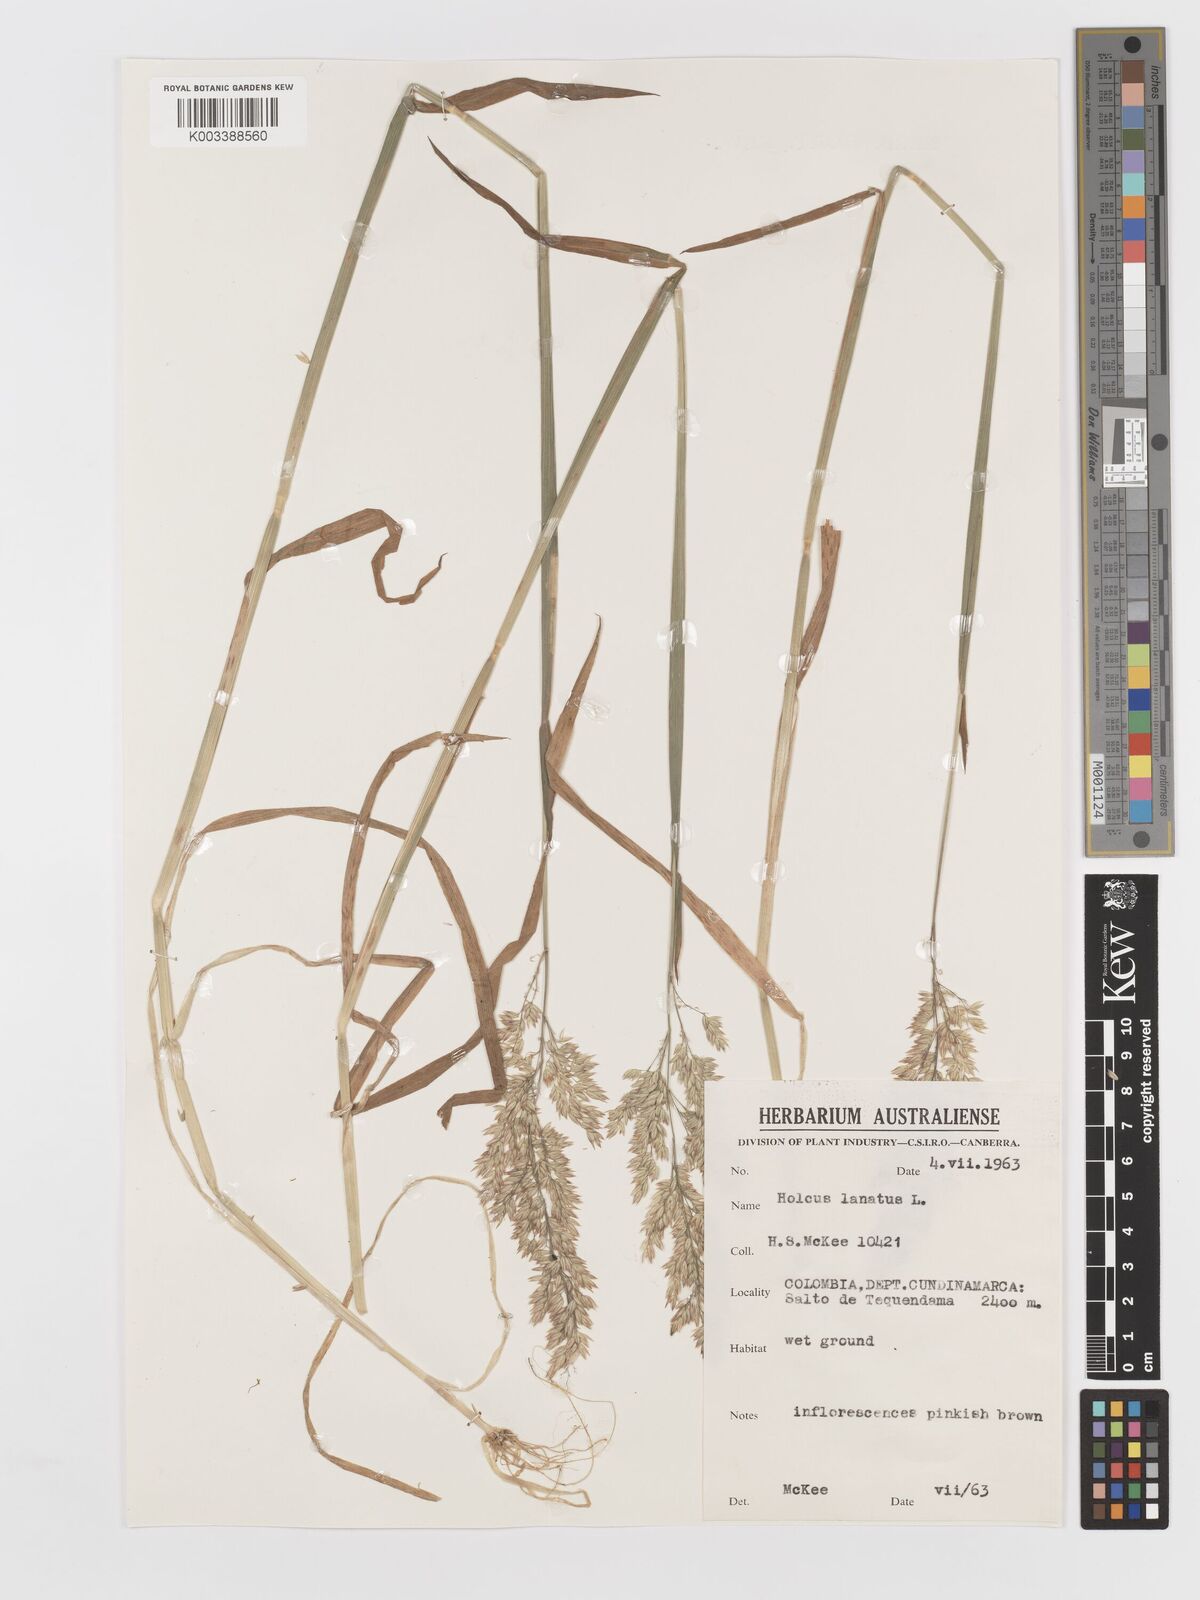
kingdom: Plantae
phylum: Tracheophyta
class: Liliopsida
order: Poales
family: Poaceae
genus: Holcus
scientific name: Holcus lanatus
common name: Yorkshire-fog
